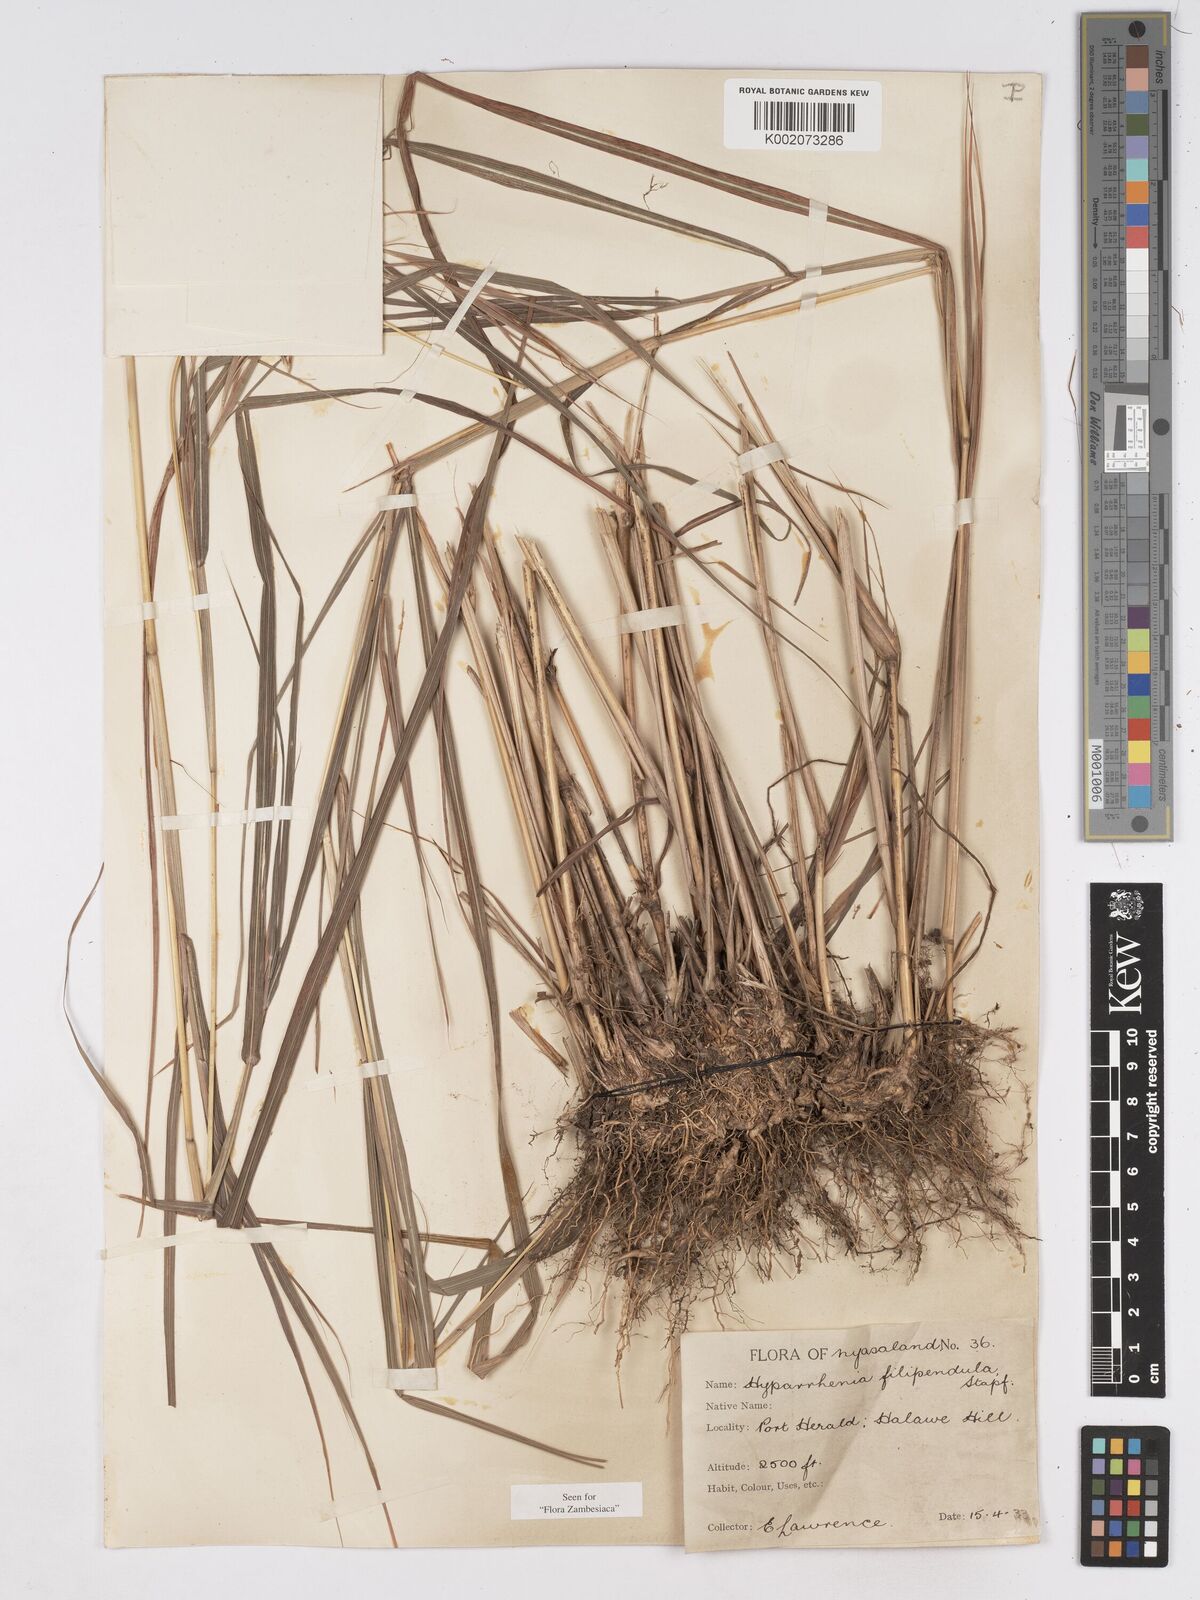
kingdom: Plantae
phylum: Tracheophyta
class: Liliopsida
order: Poales
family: Poaceae
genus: Hyparrhenia
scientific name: Hyparrhenia filipendula
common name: Tambookie grass
